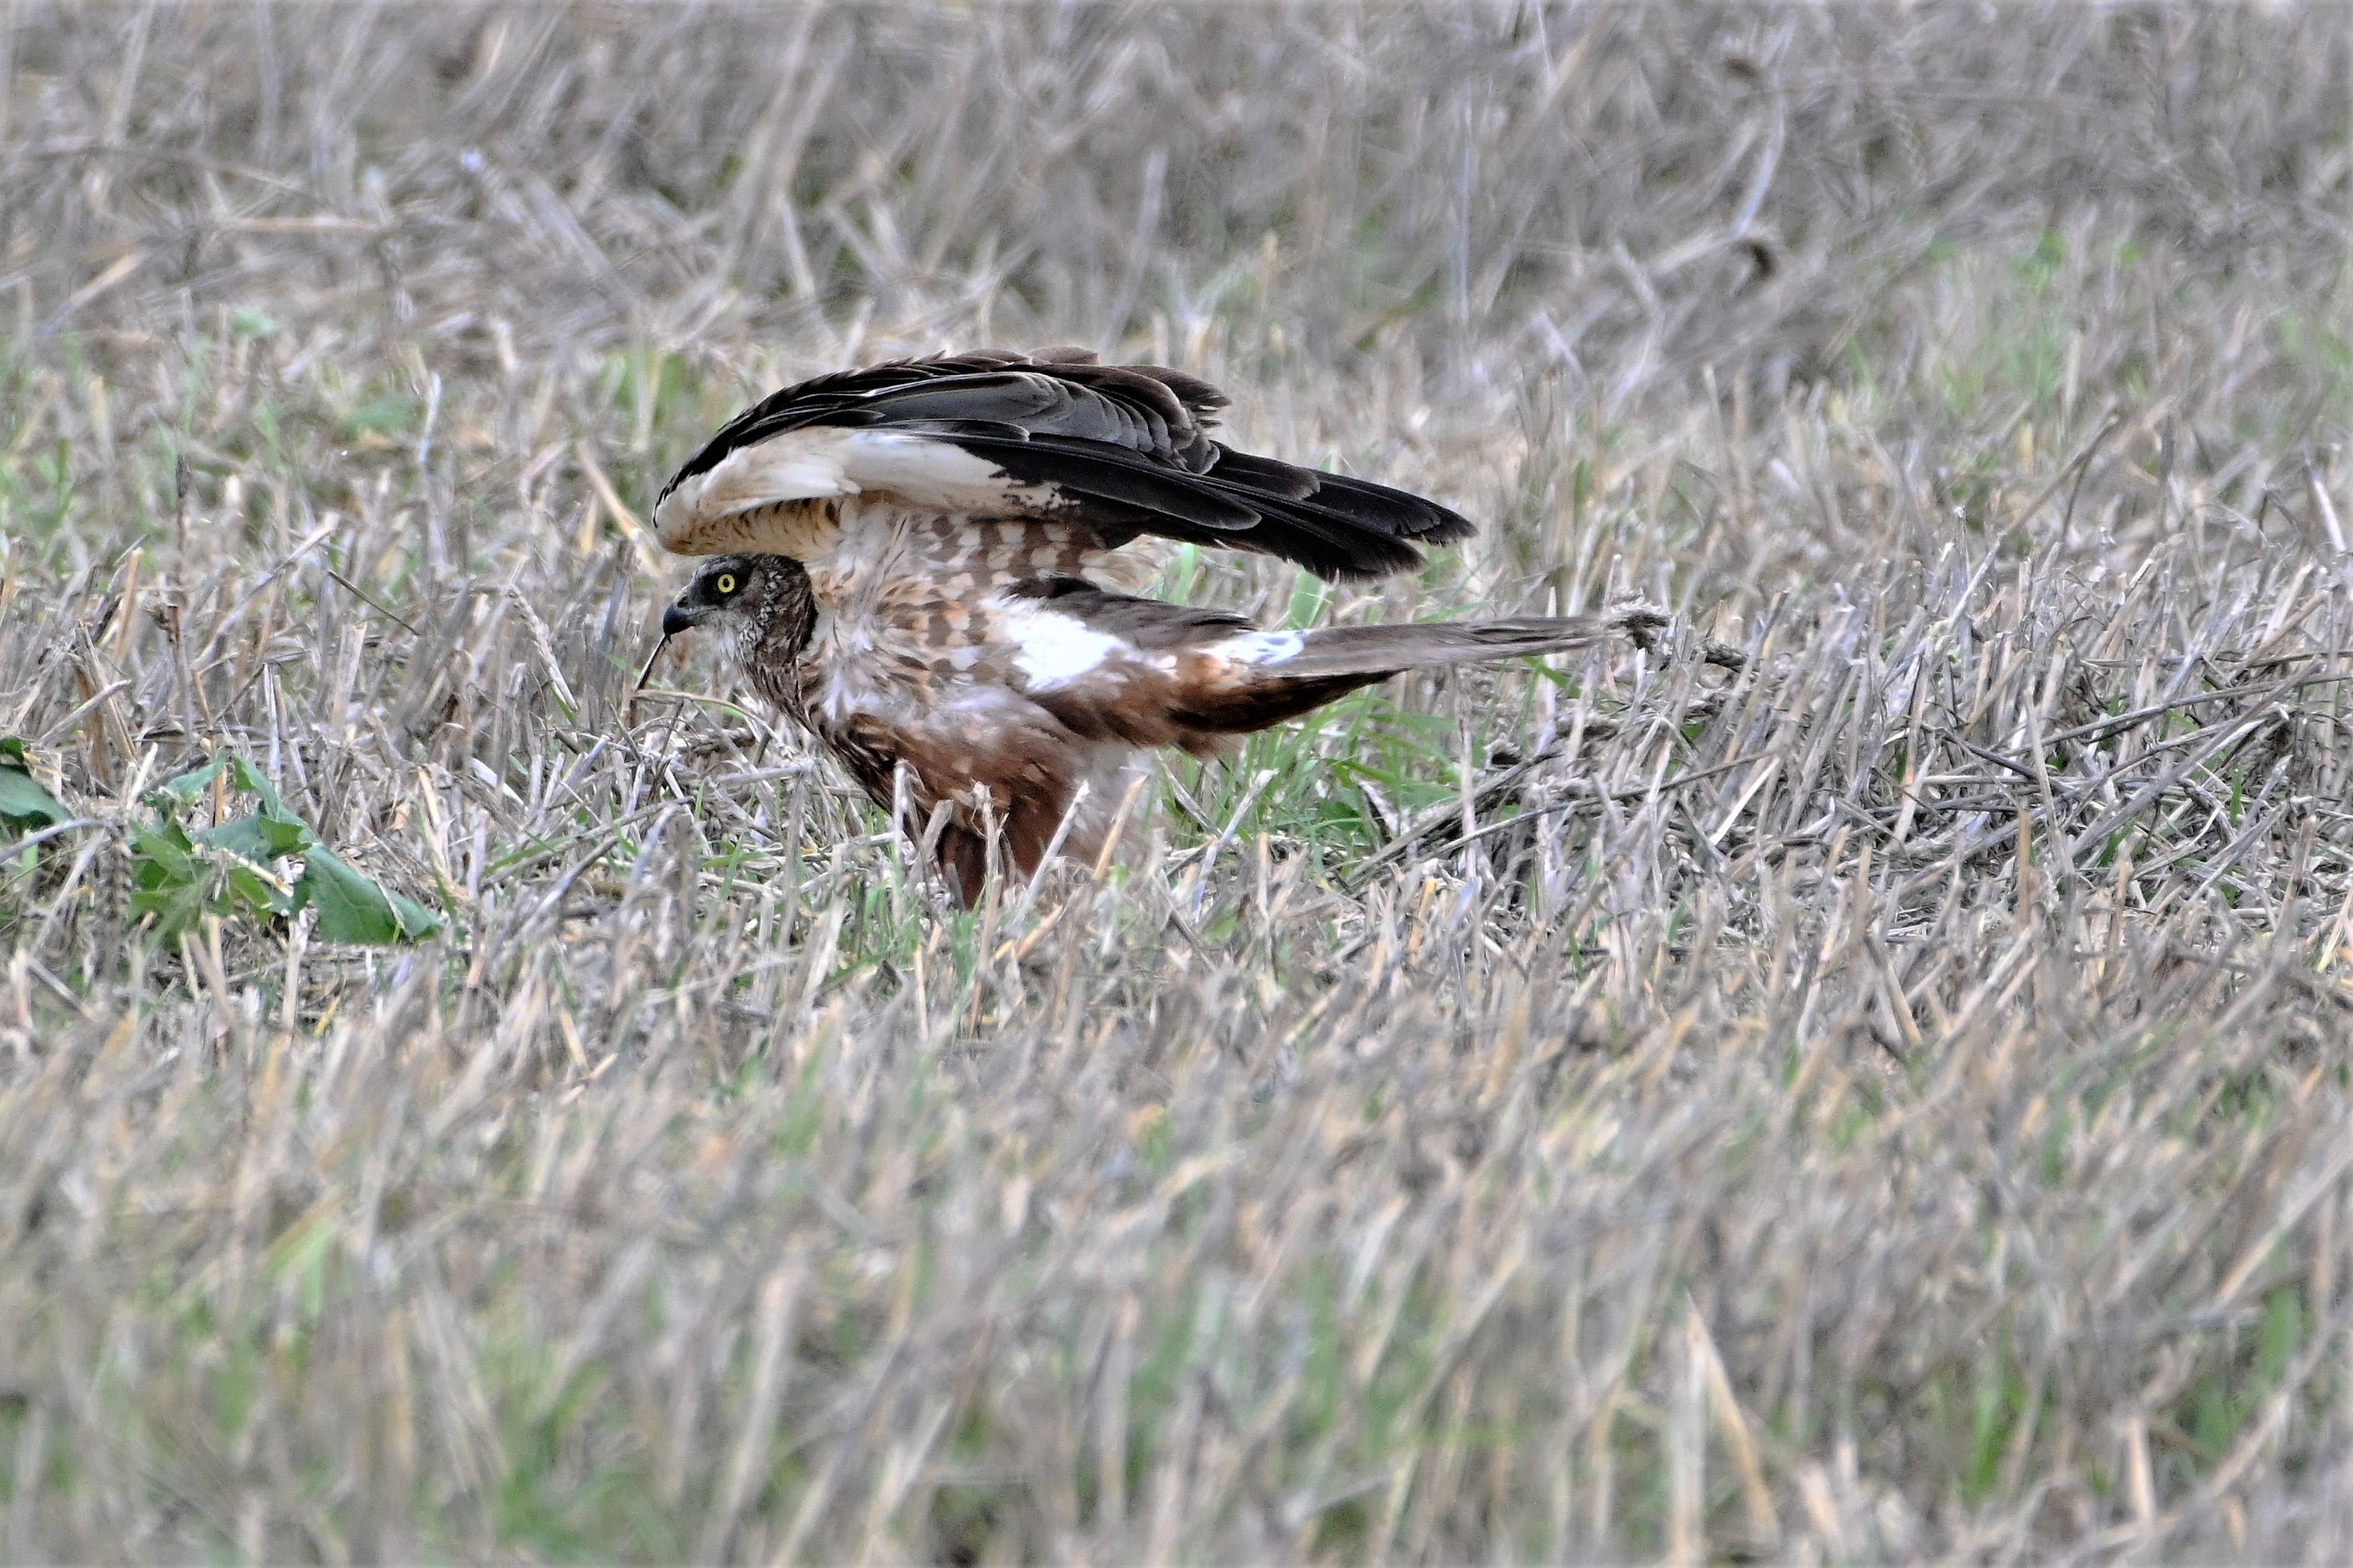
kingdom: Animalia
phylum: Chordata
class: Aves
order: Accipitriformes
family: Accipitridae
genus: Circus
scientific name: Circus aeruginosus
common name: Rørhøg
